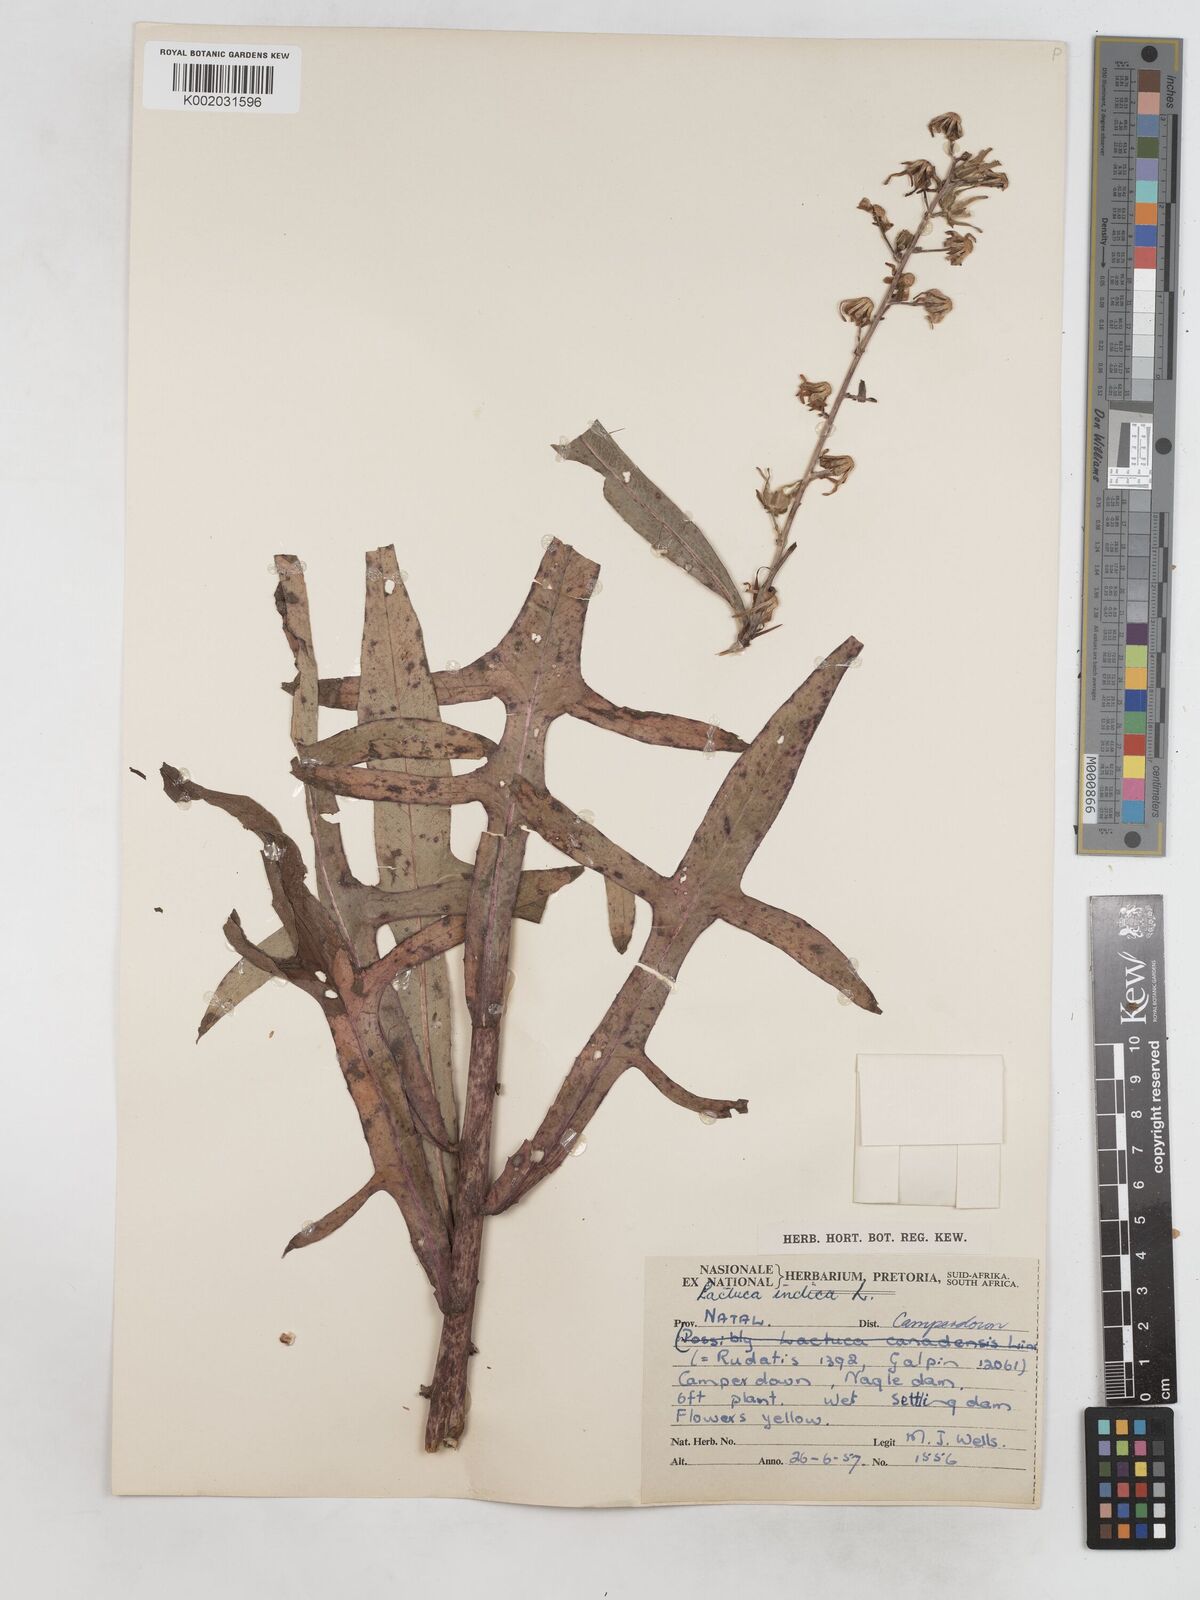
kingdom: Plantae
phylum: Tracheophyta
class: Magnoliopsida
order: Asterales
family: Asteraceae
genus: Lactuca
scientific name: Lactuca indica
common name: Wild lettuce
